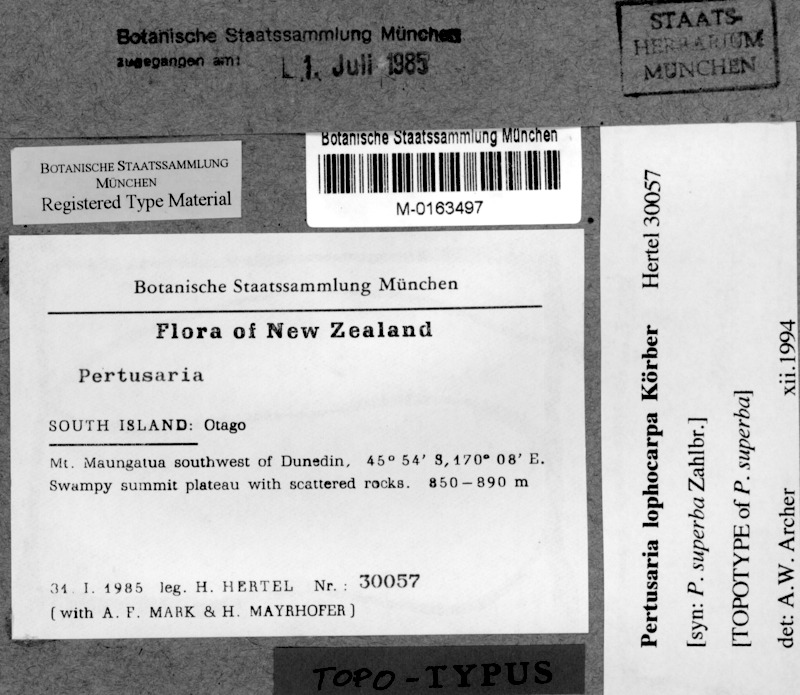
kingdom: Fungi
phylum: Ascomycota
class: Lecanoromycetes
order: Pertusariales
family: Pertusariaceae
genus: Pertusaria
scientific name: Pertusaria lophocarpa
